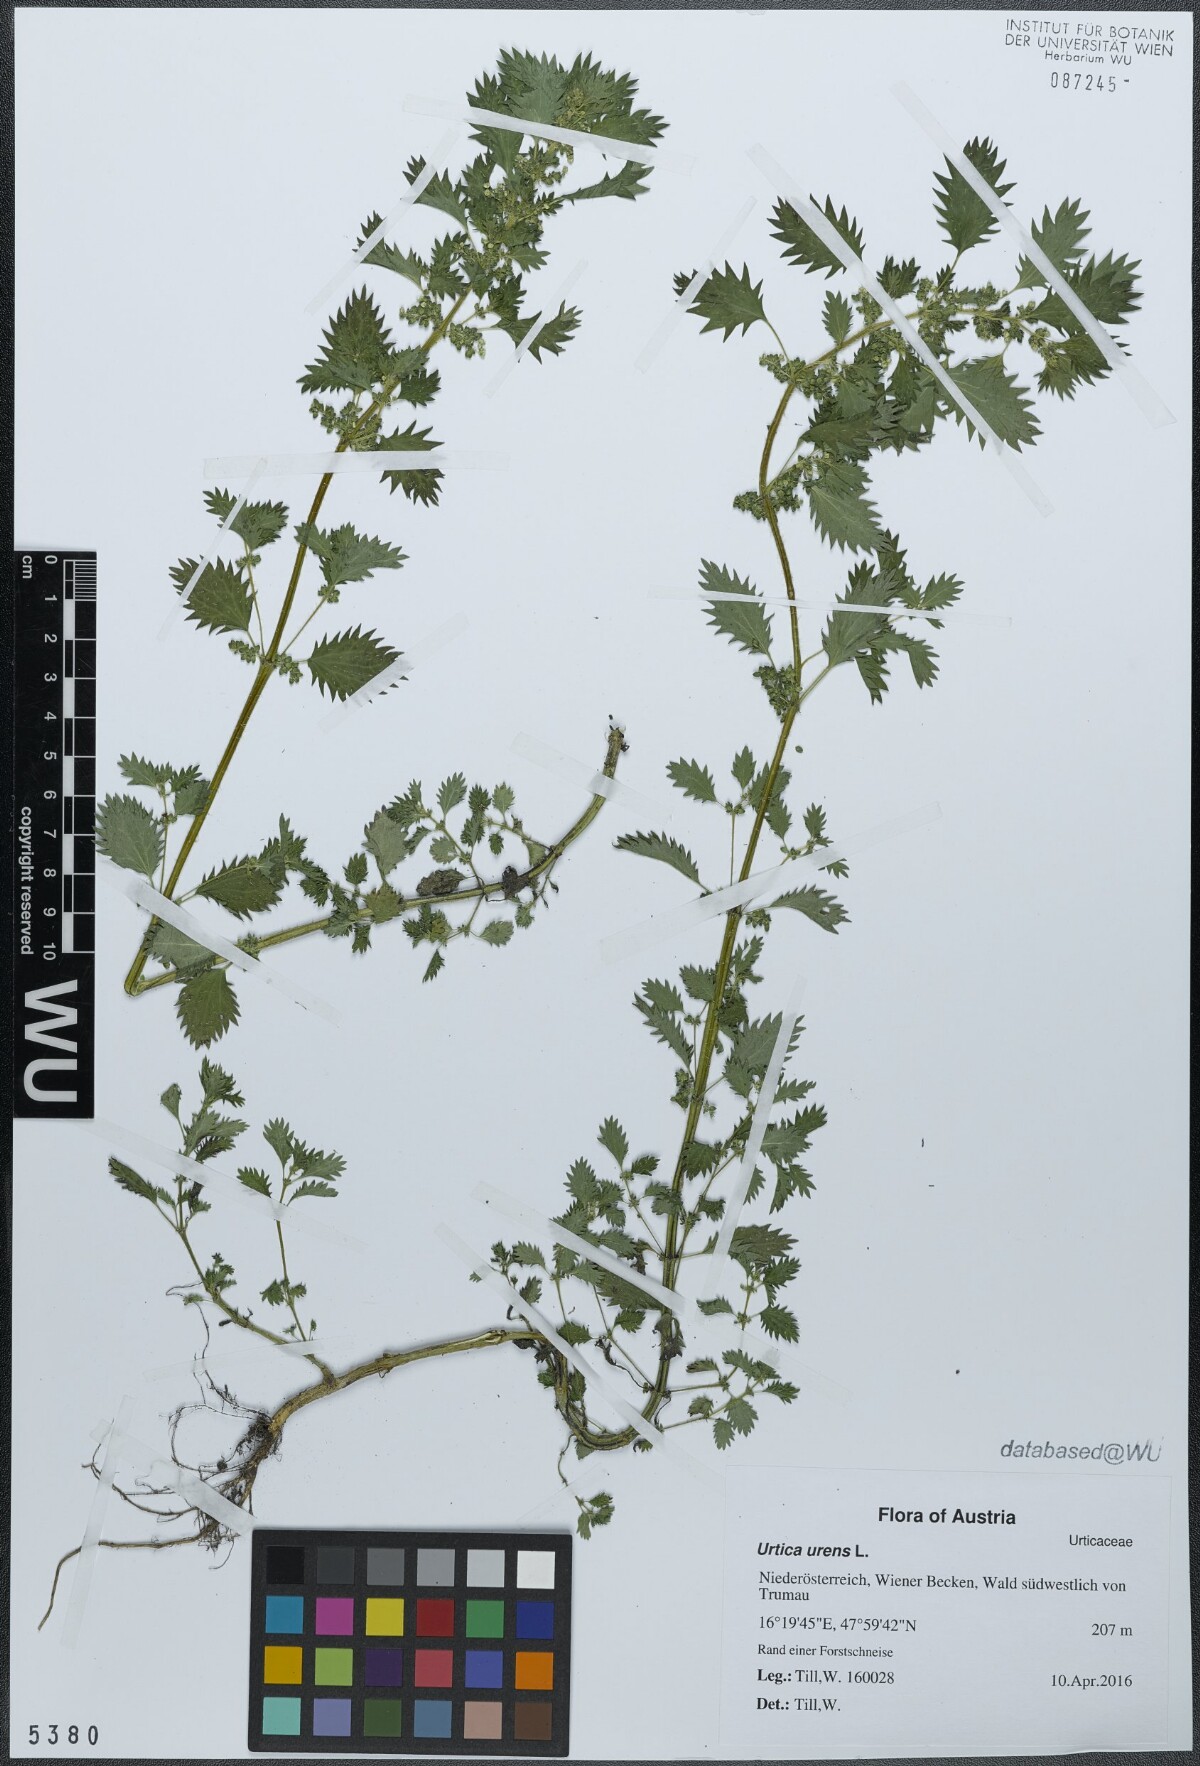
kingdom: Plantae
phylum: Tracheophyta
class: Magnoliopsida
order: Rosales
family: Urticaceae
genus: Urtica
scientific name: Urtica urens
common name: Dwarf nettle
